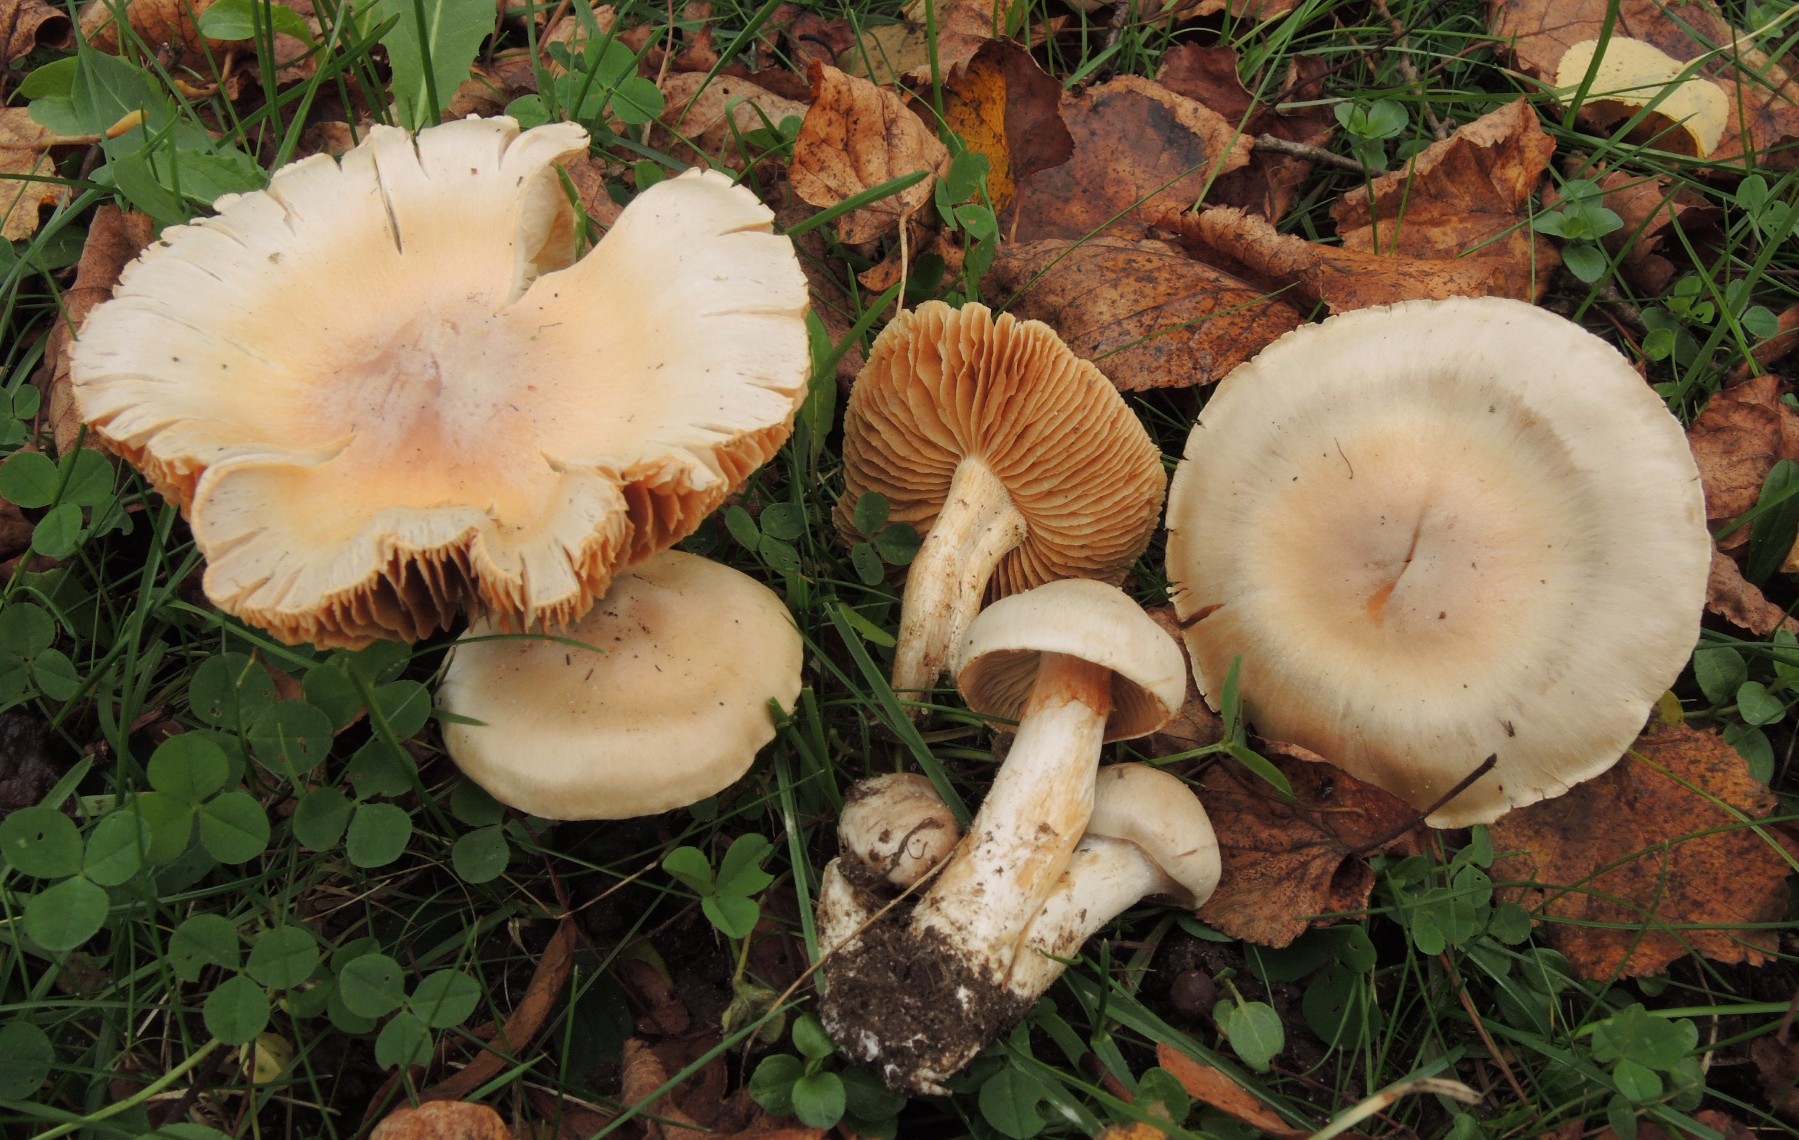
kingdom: Fungi
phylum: Basidiomycota
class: Agaricomycetes
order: Agaricales
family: Cortinariaceae
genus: Thaxterogaster
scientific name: Thaxterogaster leucoluteolus
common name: isabella slørhat
